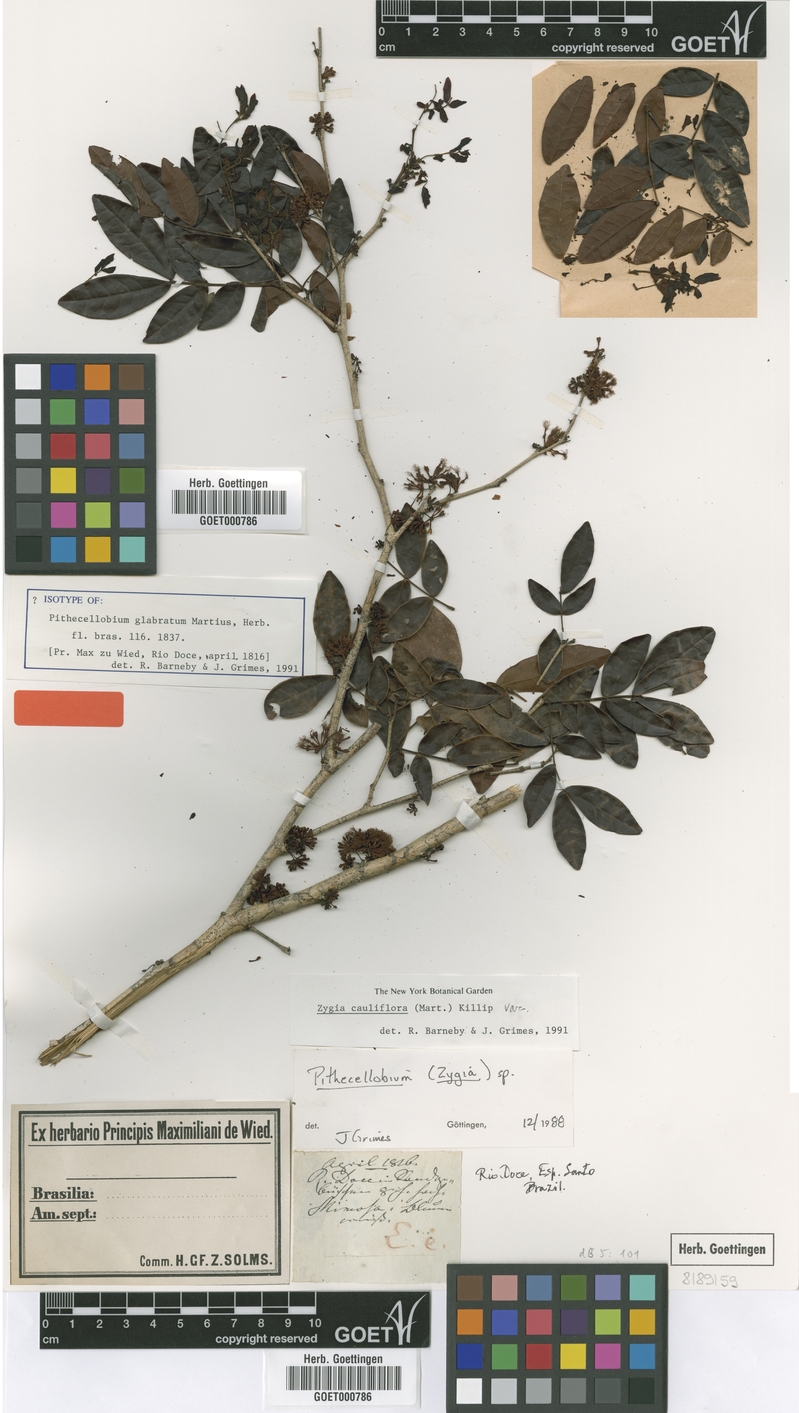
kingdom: Plantae
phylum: Tracheophyta
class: Magnoliopsida
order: Fabales
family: Fabaceae
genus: Zygia
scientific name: Zygia cauliflora
